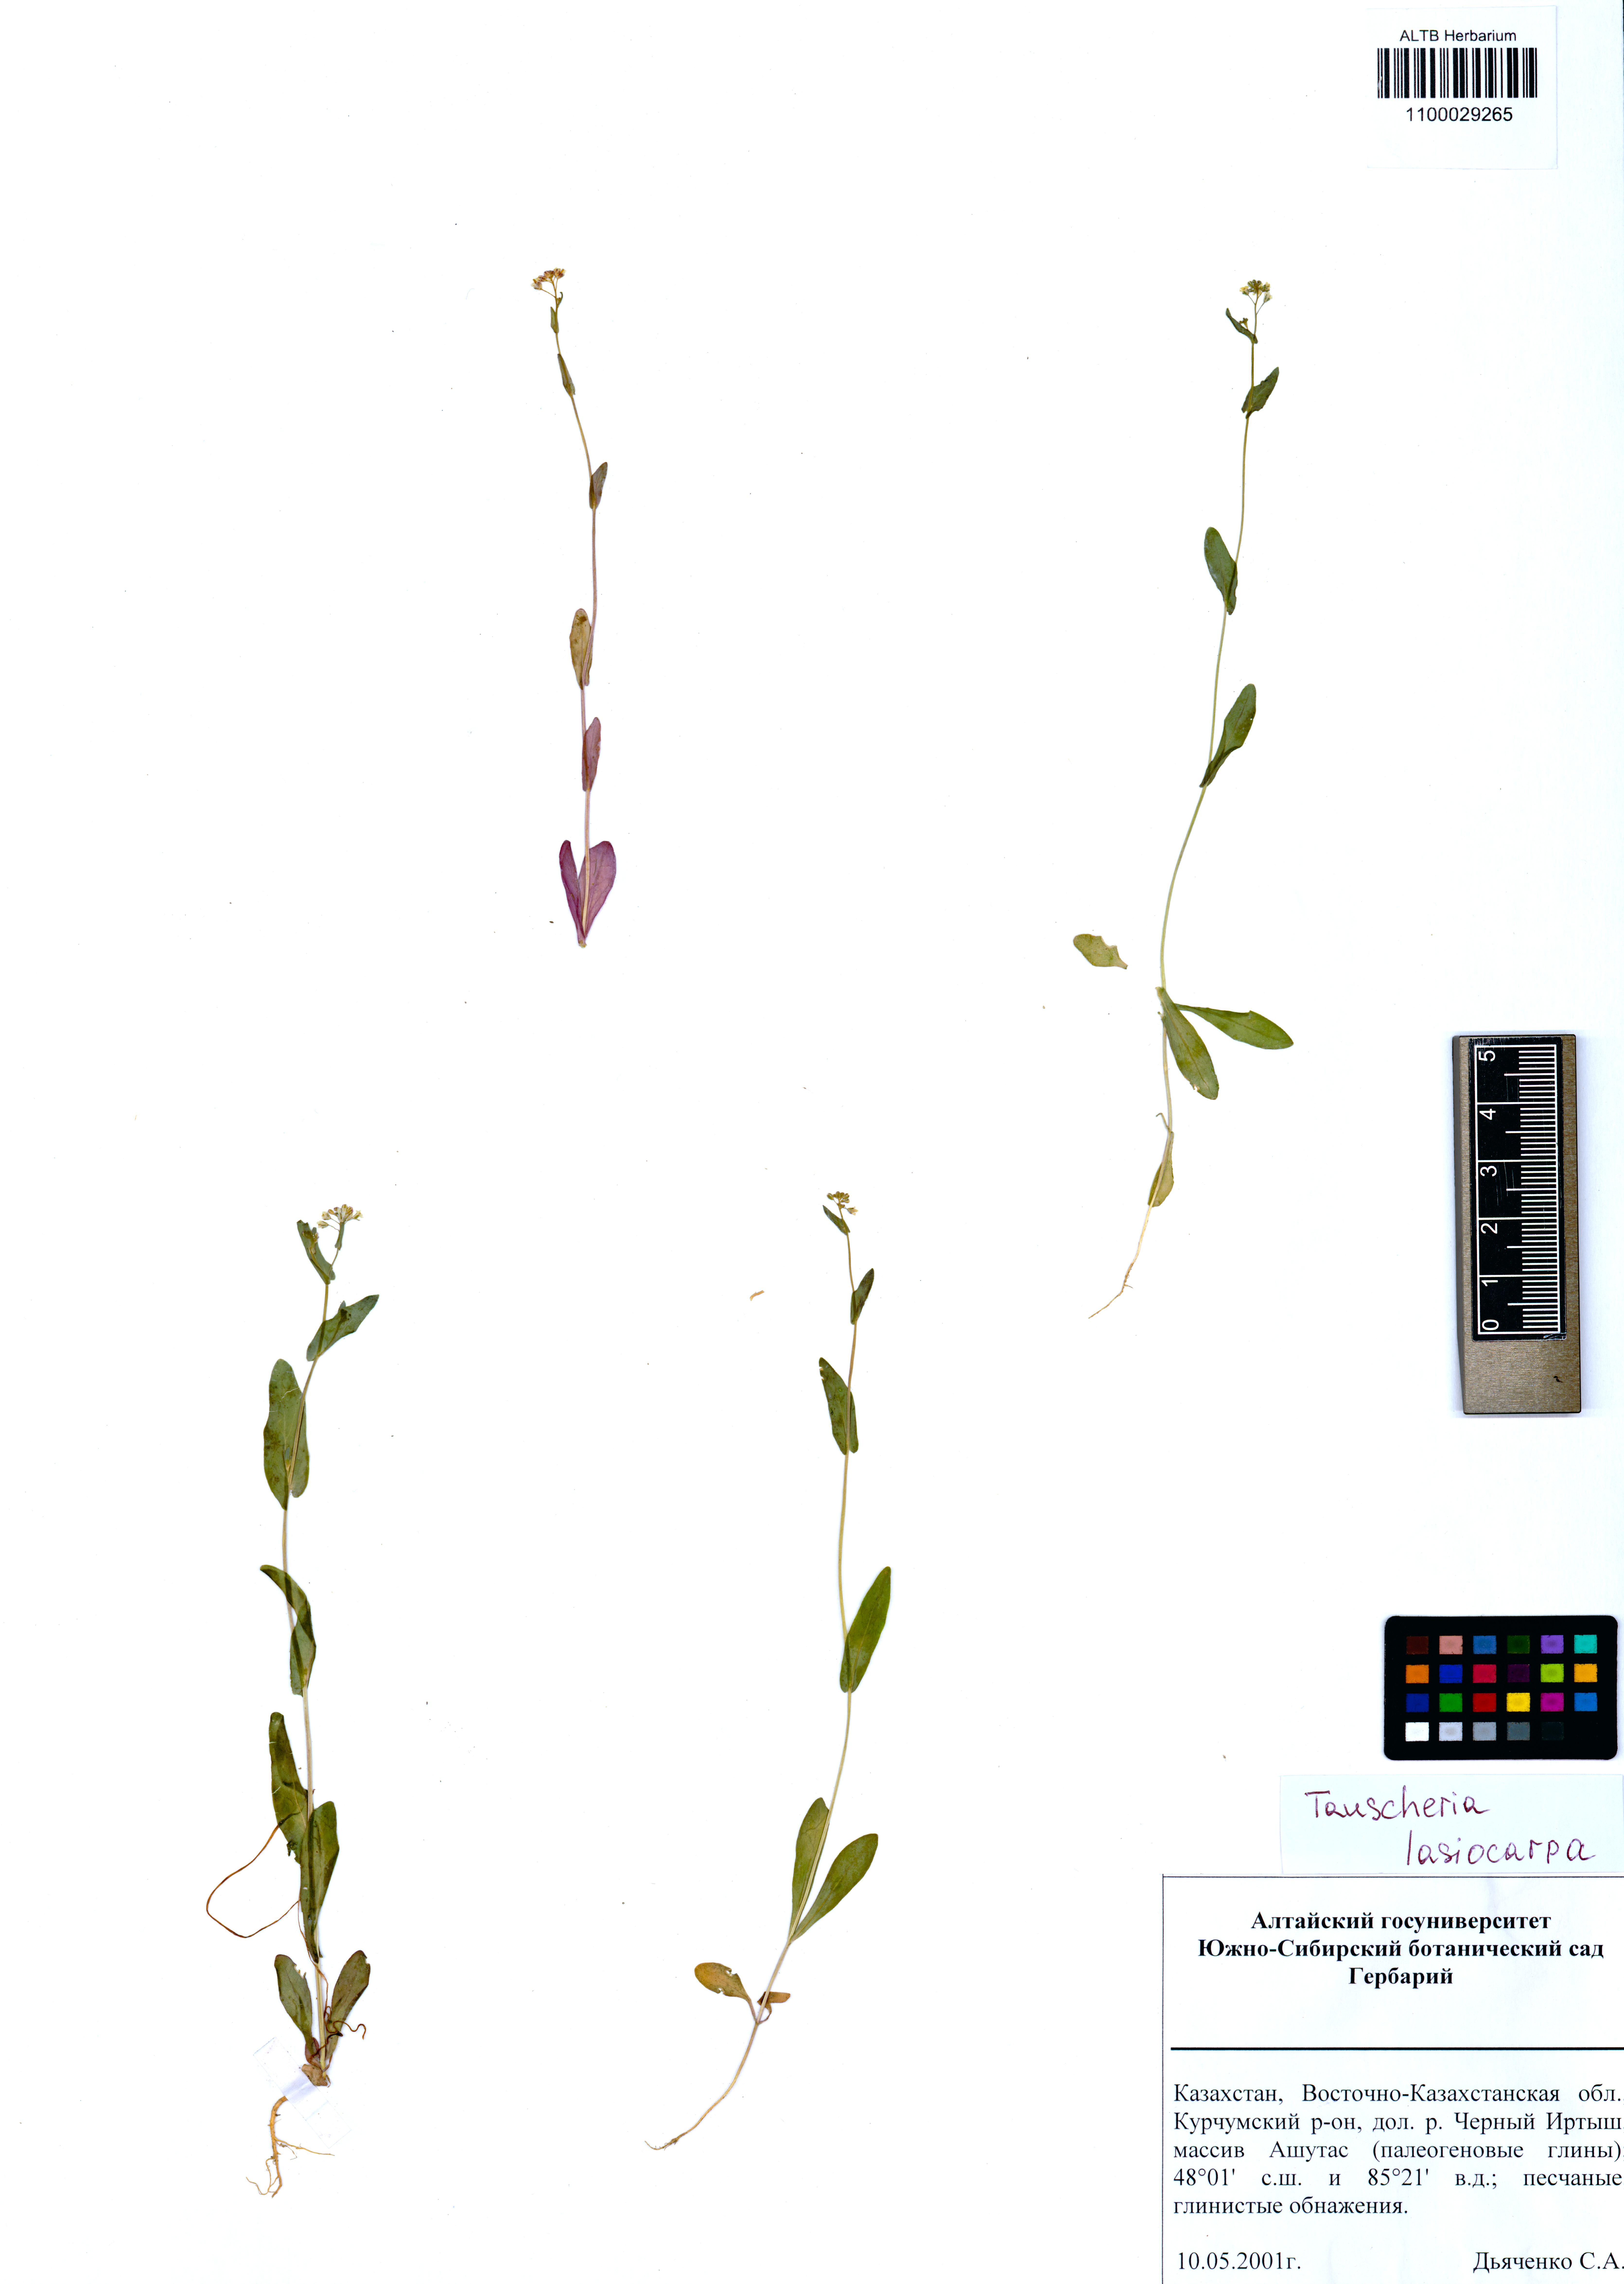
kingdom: Plantae
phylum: Tracheophyta
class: Magnoliopsida
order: Brassicales
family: Brassicaceae
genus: Tauscheria
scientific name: Tauscheria lasiocarpa
